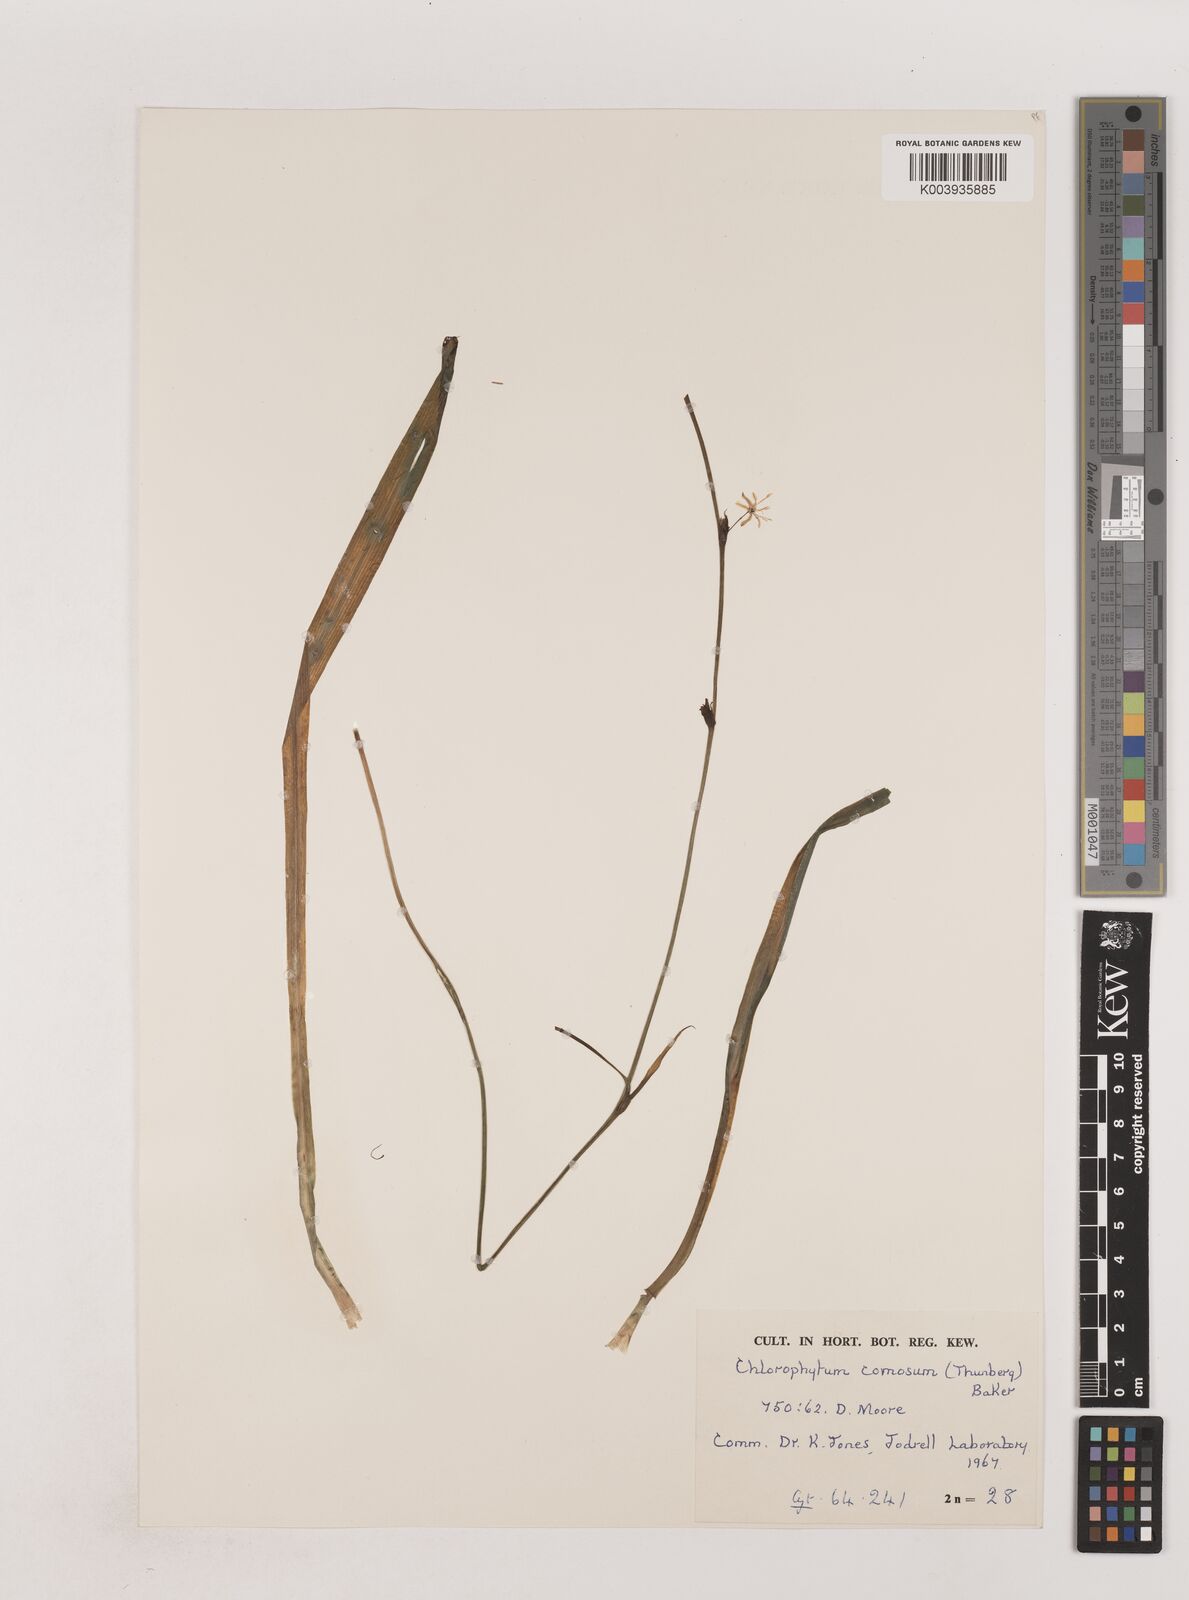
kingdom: Plantae
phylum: Tracheophyta
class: Liliopsida
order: Asparagales
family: Asparagaceae
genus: Chlorophytum
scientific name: Chlorophytum comosum
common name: Spider plant
